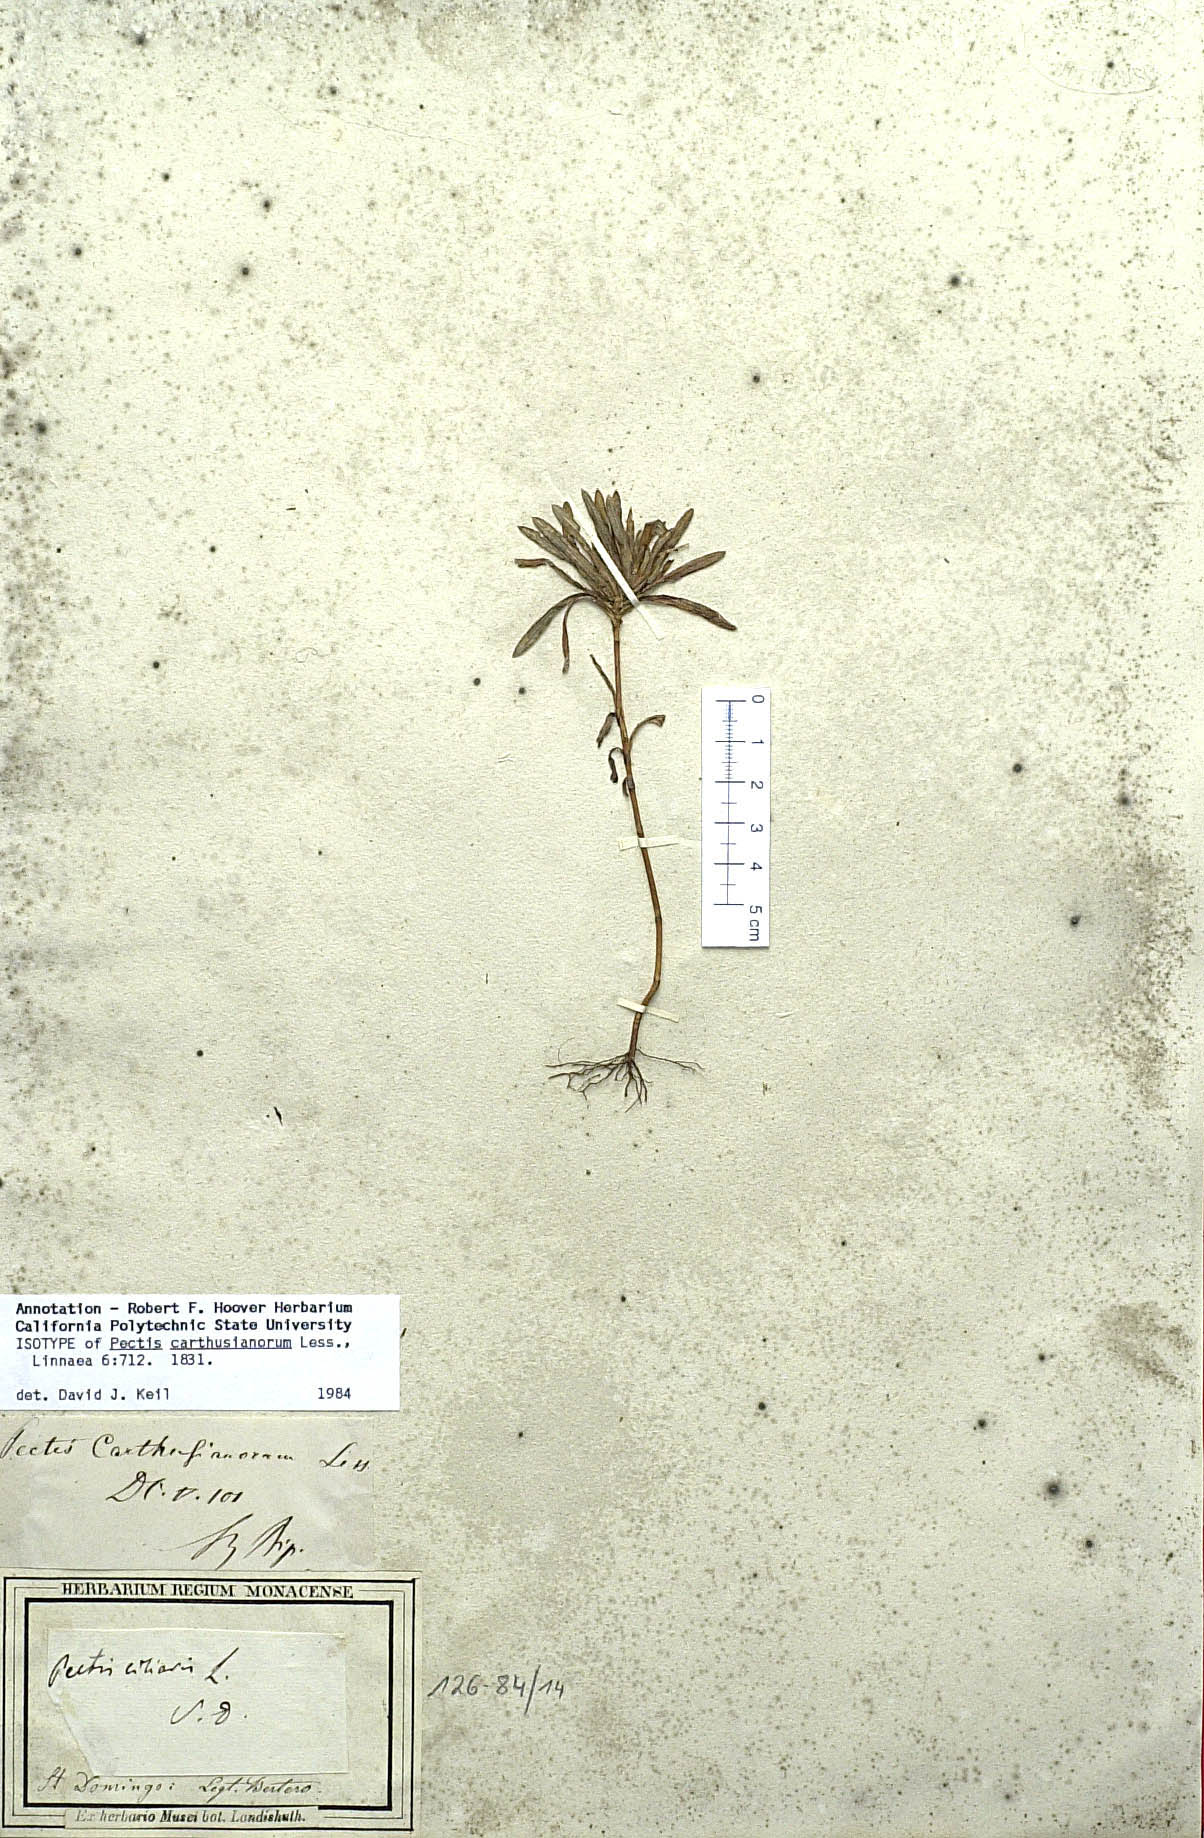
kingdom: Plantae
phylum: Tracheophyta
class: Magnoliopsida
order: Asterales
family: Asteraceae
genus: Pectis
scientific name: Pectis carthusianorum
